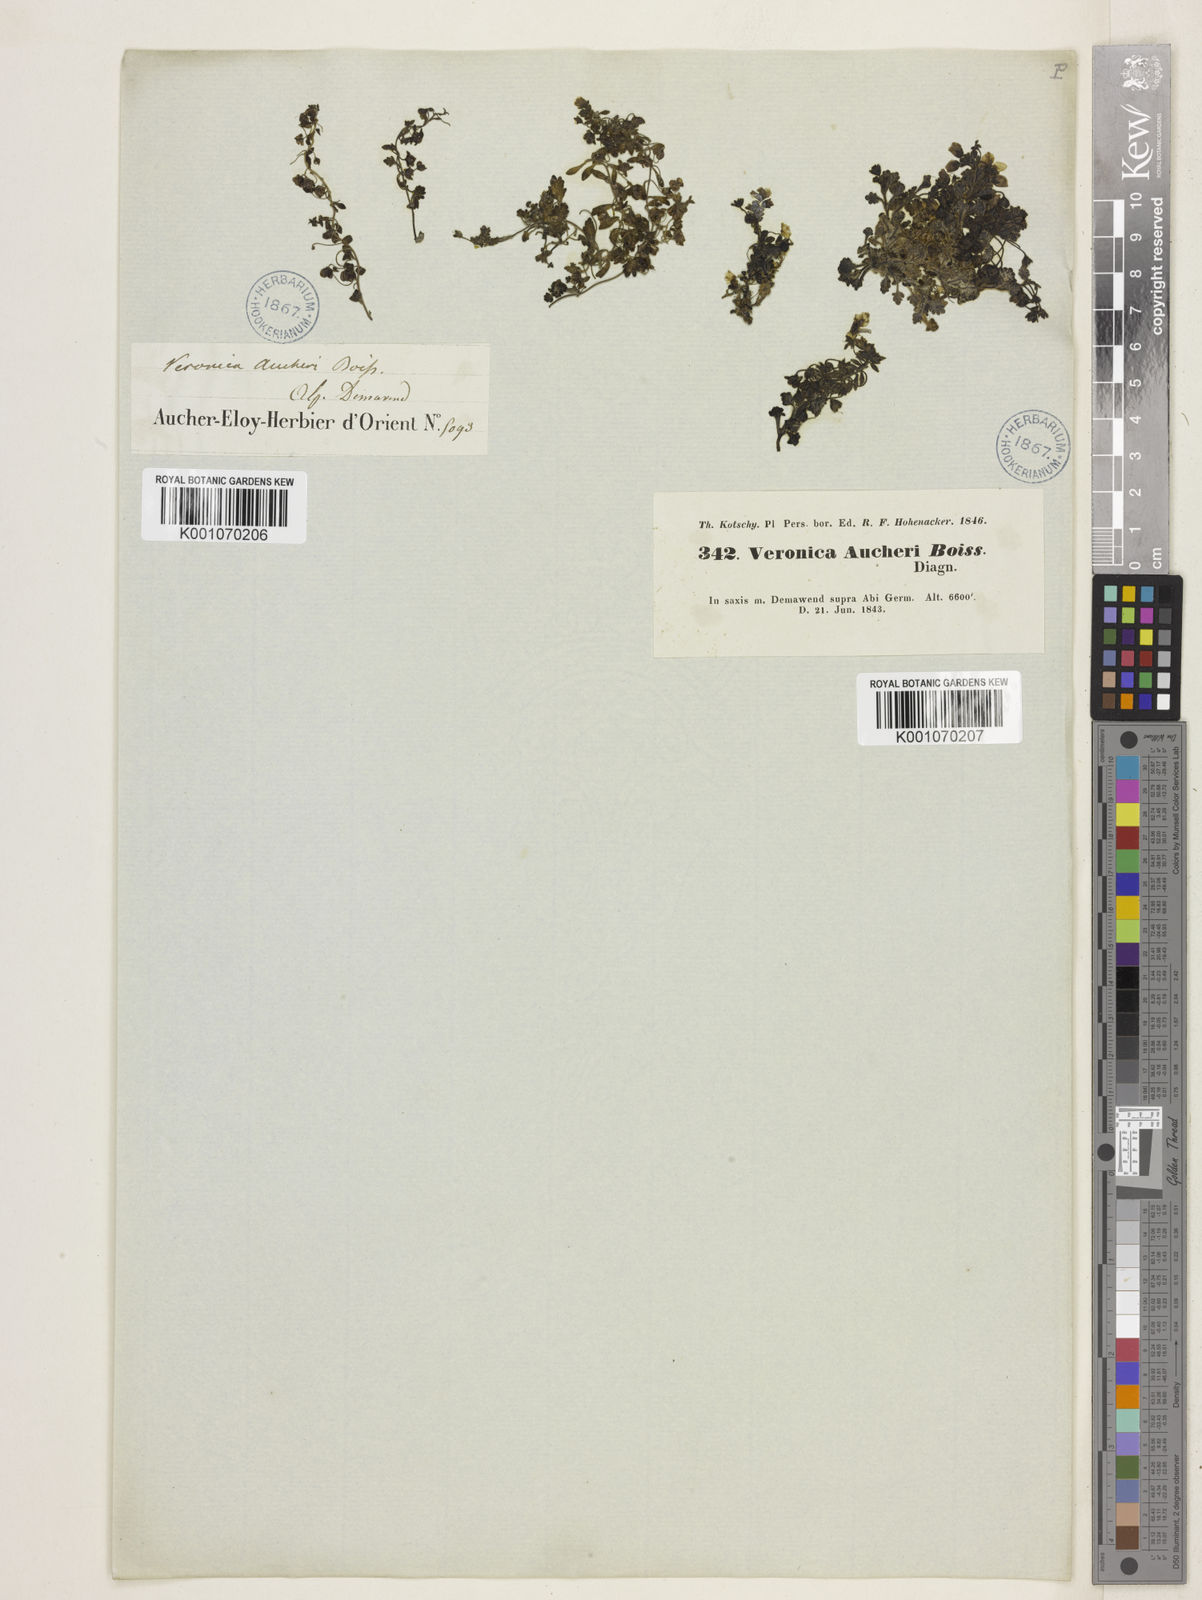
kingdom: Plantae
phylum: Tracheophyta
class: Magnoliopsida
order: Lamiales
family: Plantaginaceae
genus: Veronica
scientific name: Veronica aucheri
